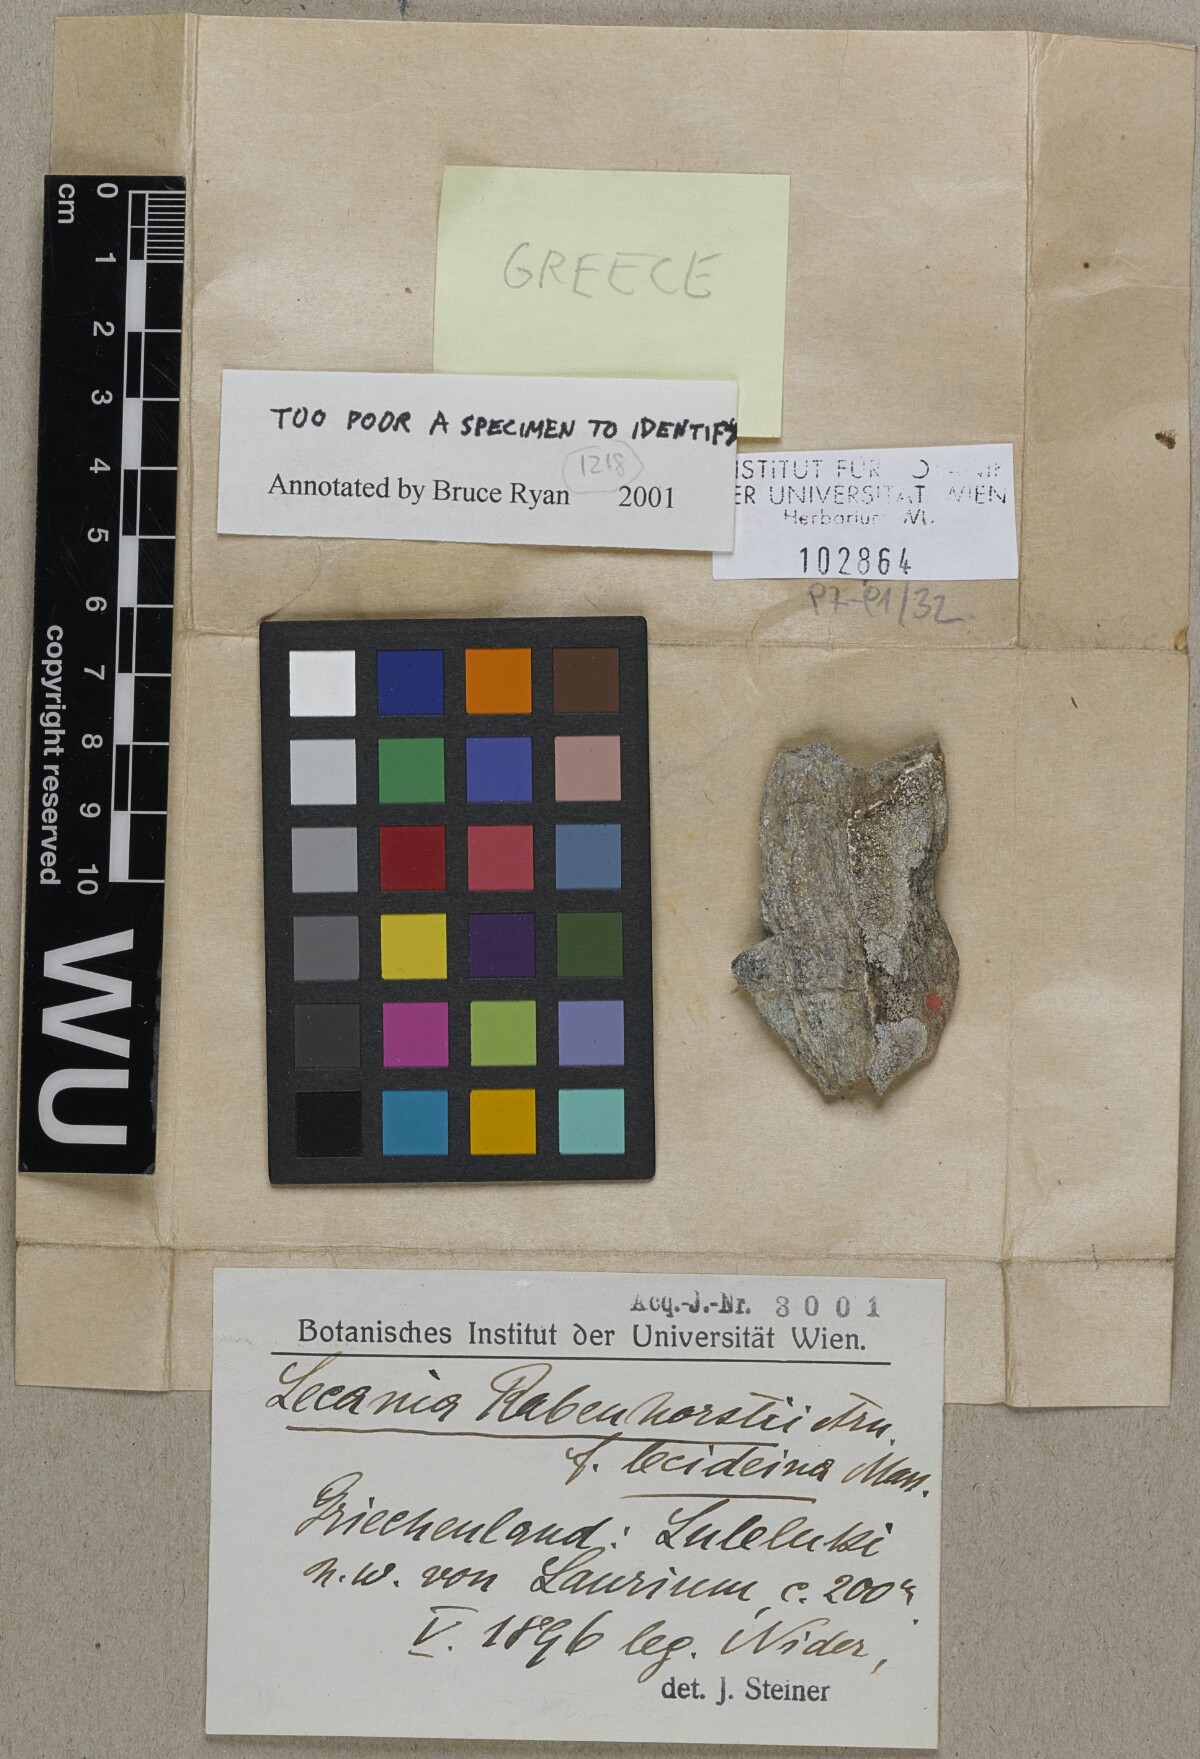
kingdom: Fungi
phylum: Ascomycota
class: Lecanoromycetes
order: Lecanorales
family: Ramalinaceae
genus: Lecania
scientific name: Lecania rabenhorstii
